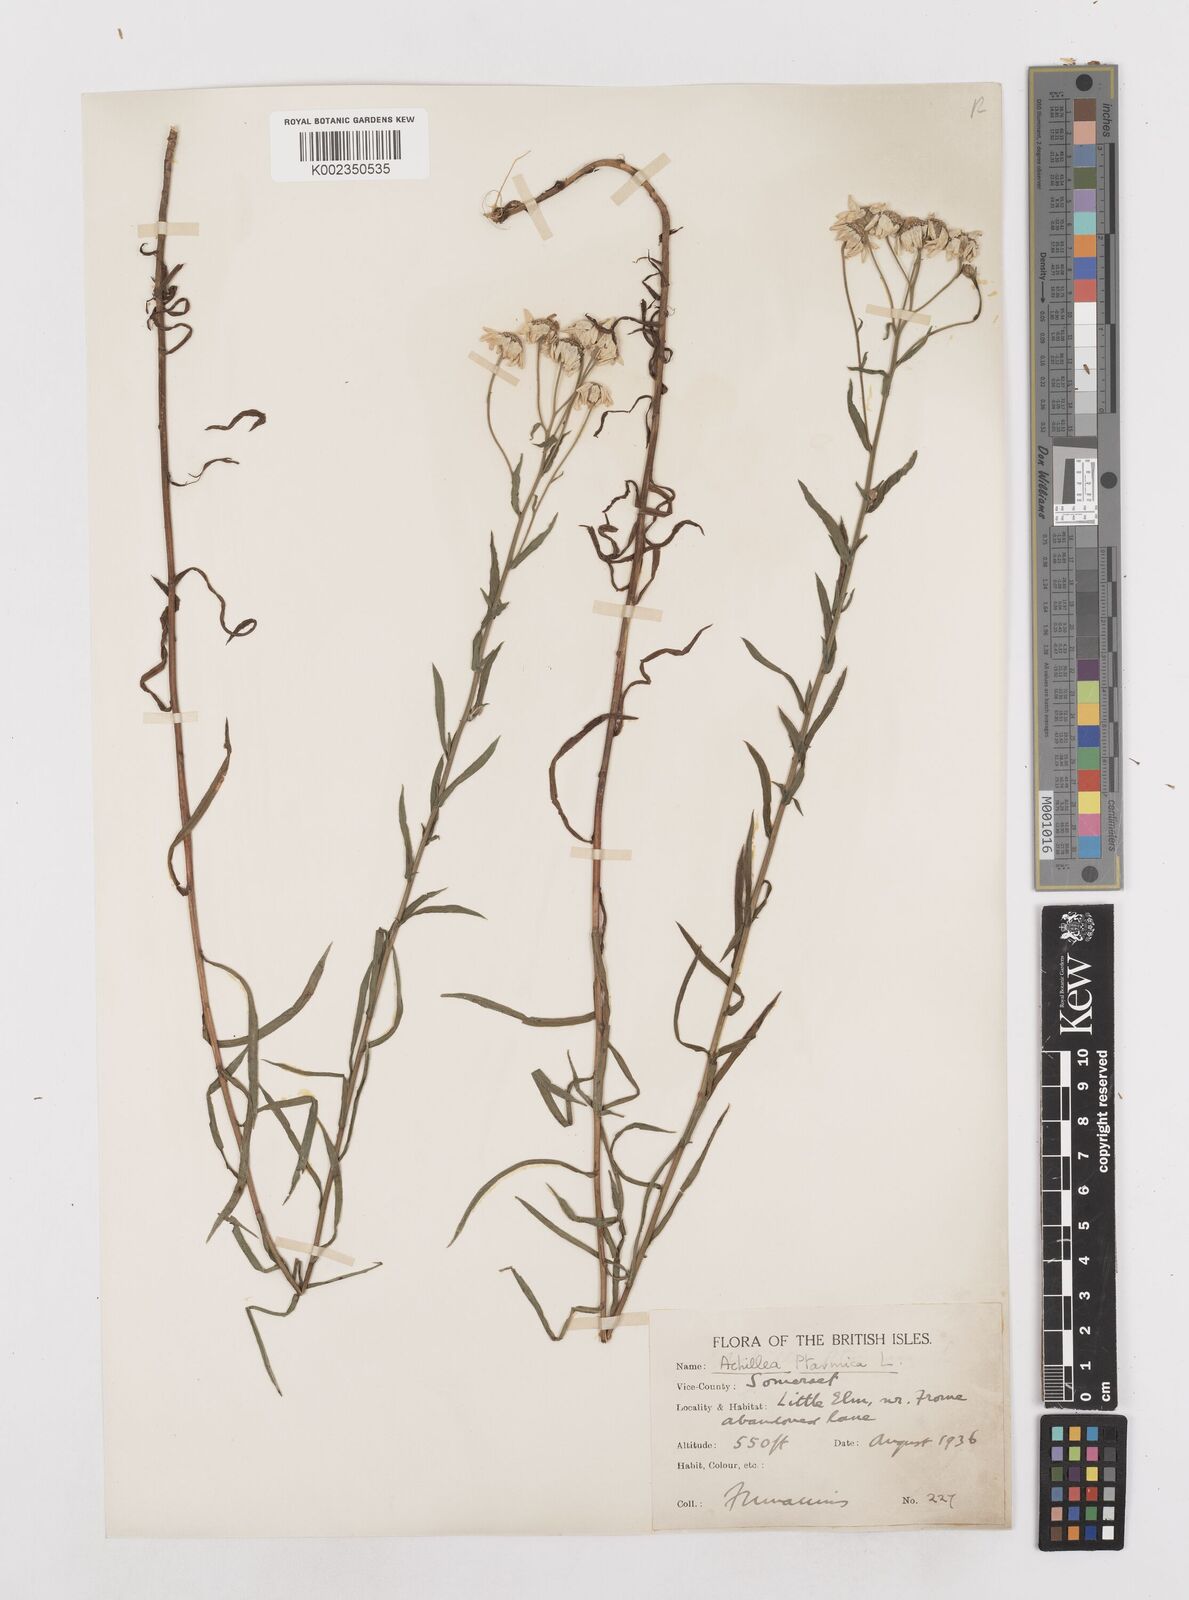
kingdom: Plantae
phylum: Tracheophyta
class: Magnoliopsida
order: Asterales
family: Asteraceae
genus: Achillea
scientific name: Achillea ptarmica
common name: Sneezeweed
